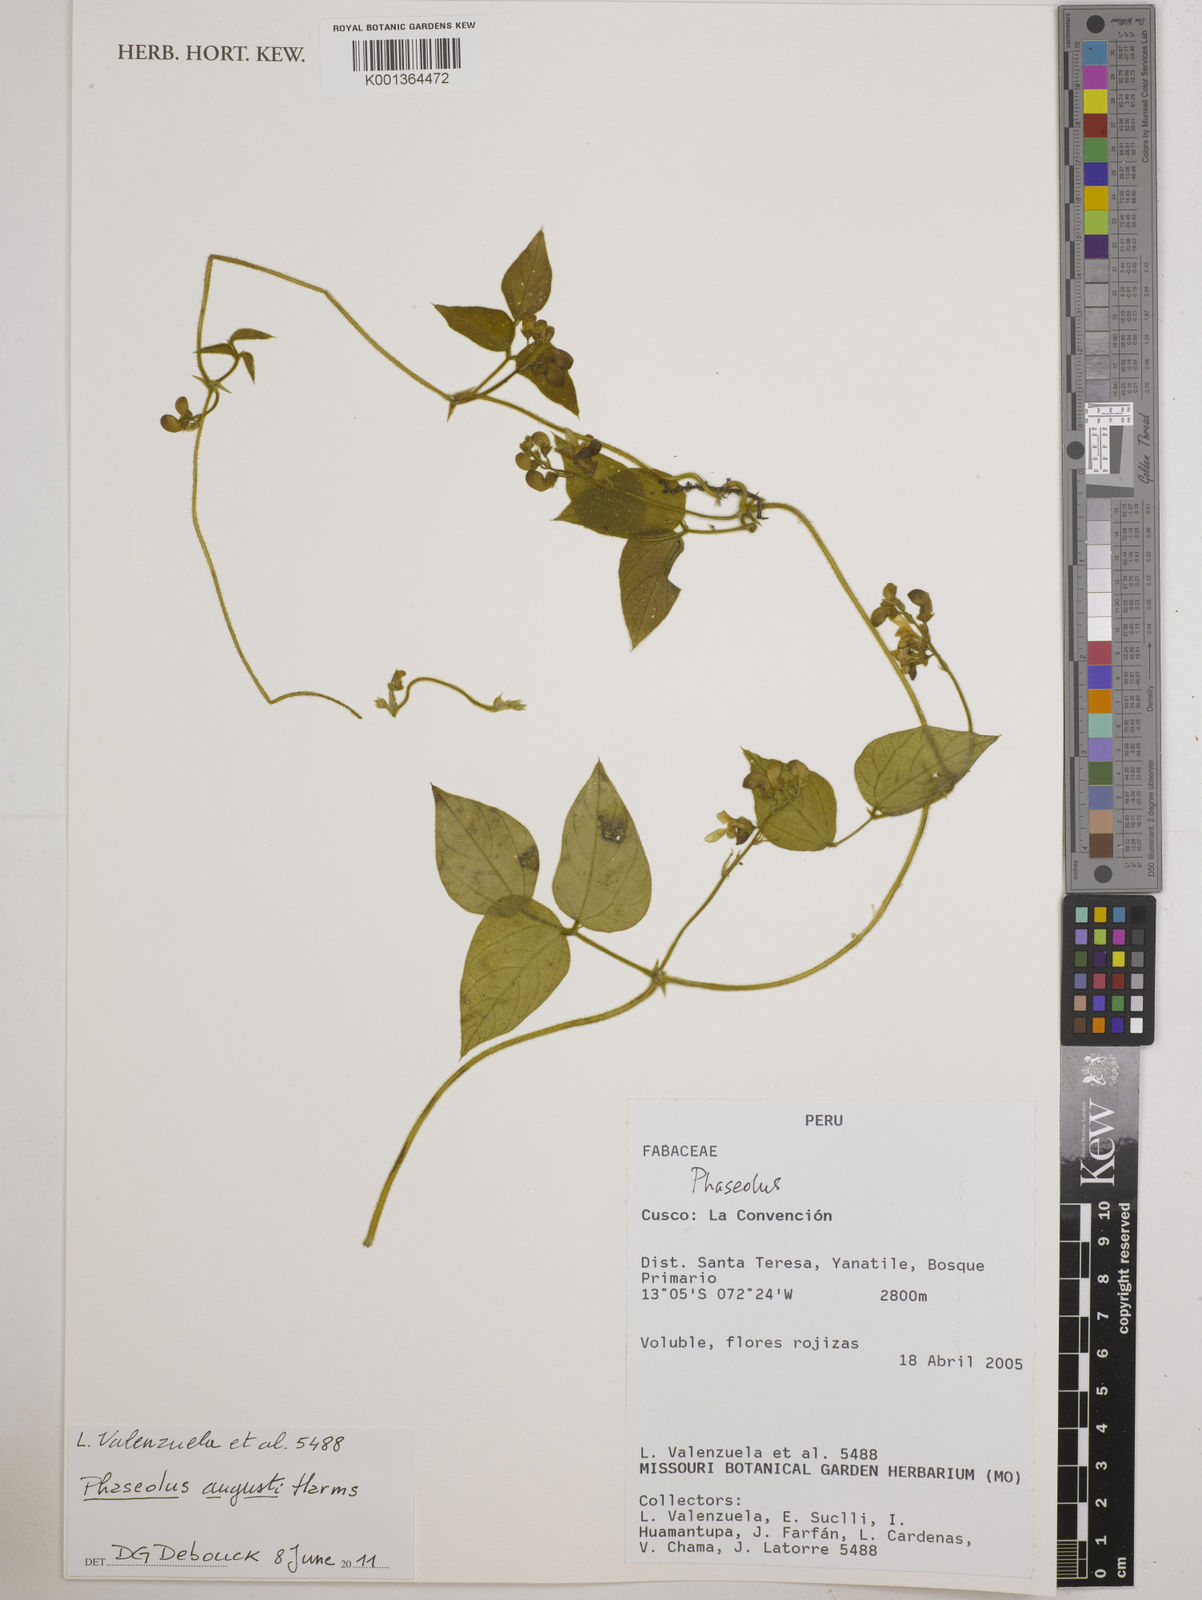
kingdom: Plantae
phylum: Tracheophyta
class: Magnoliopsida
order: Fabales
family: Fabaceae
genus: Phaseolus
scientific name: Phaseolus augusti
